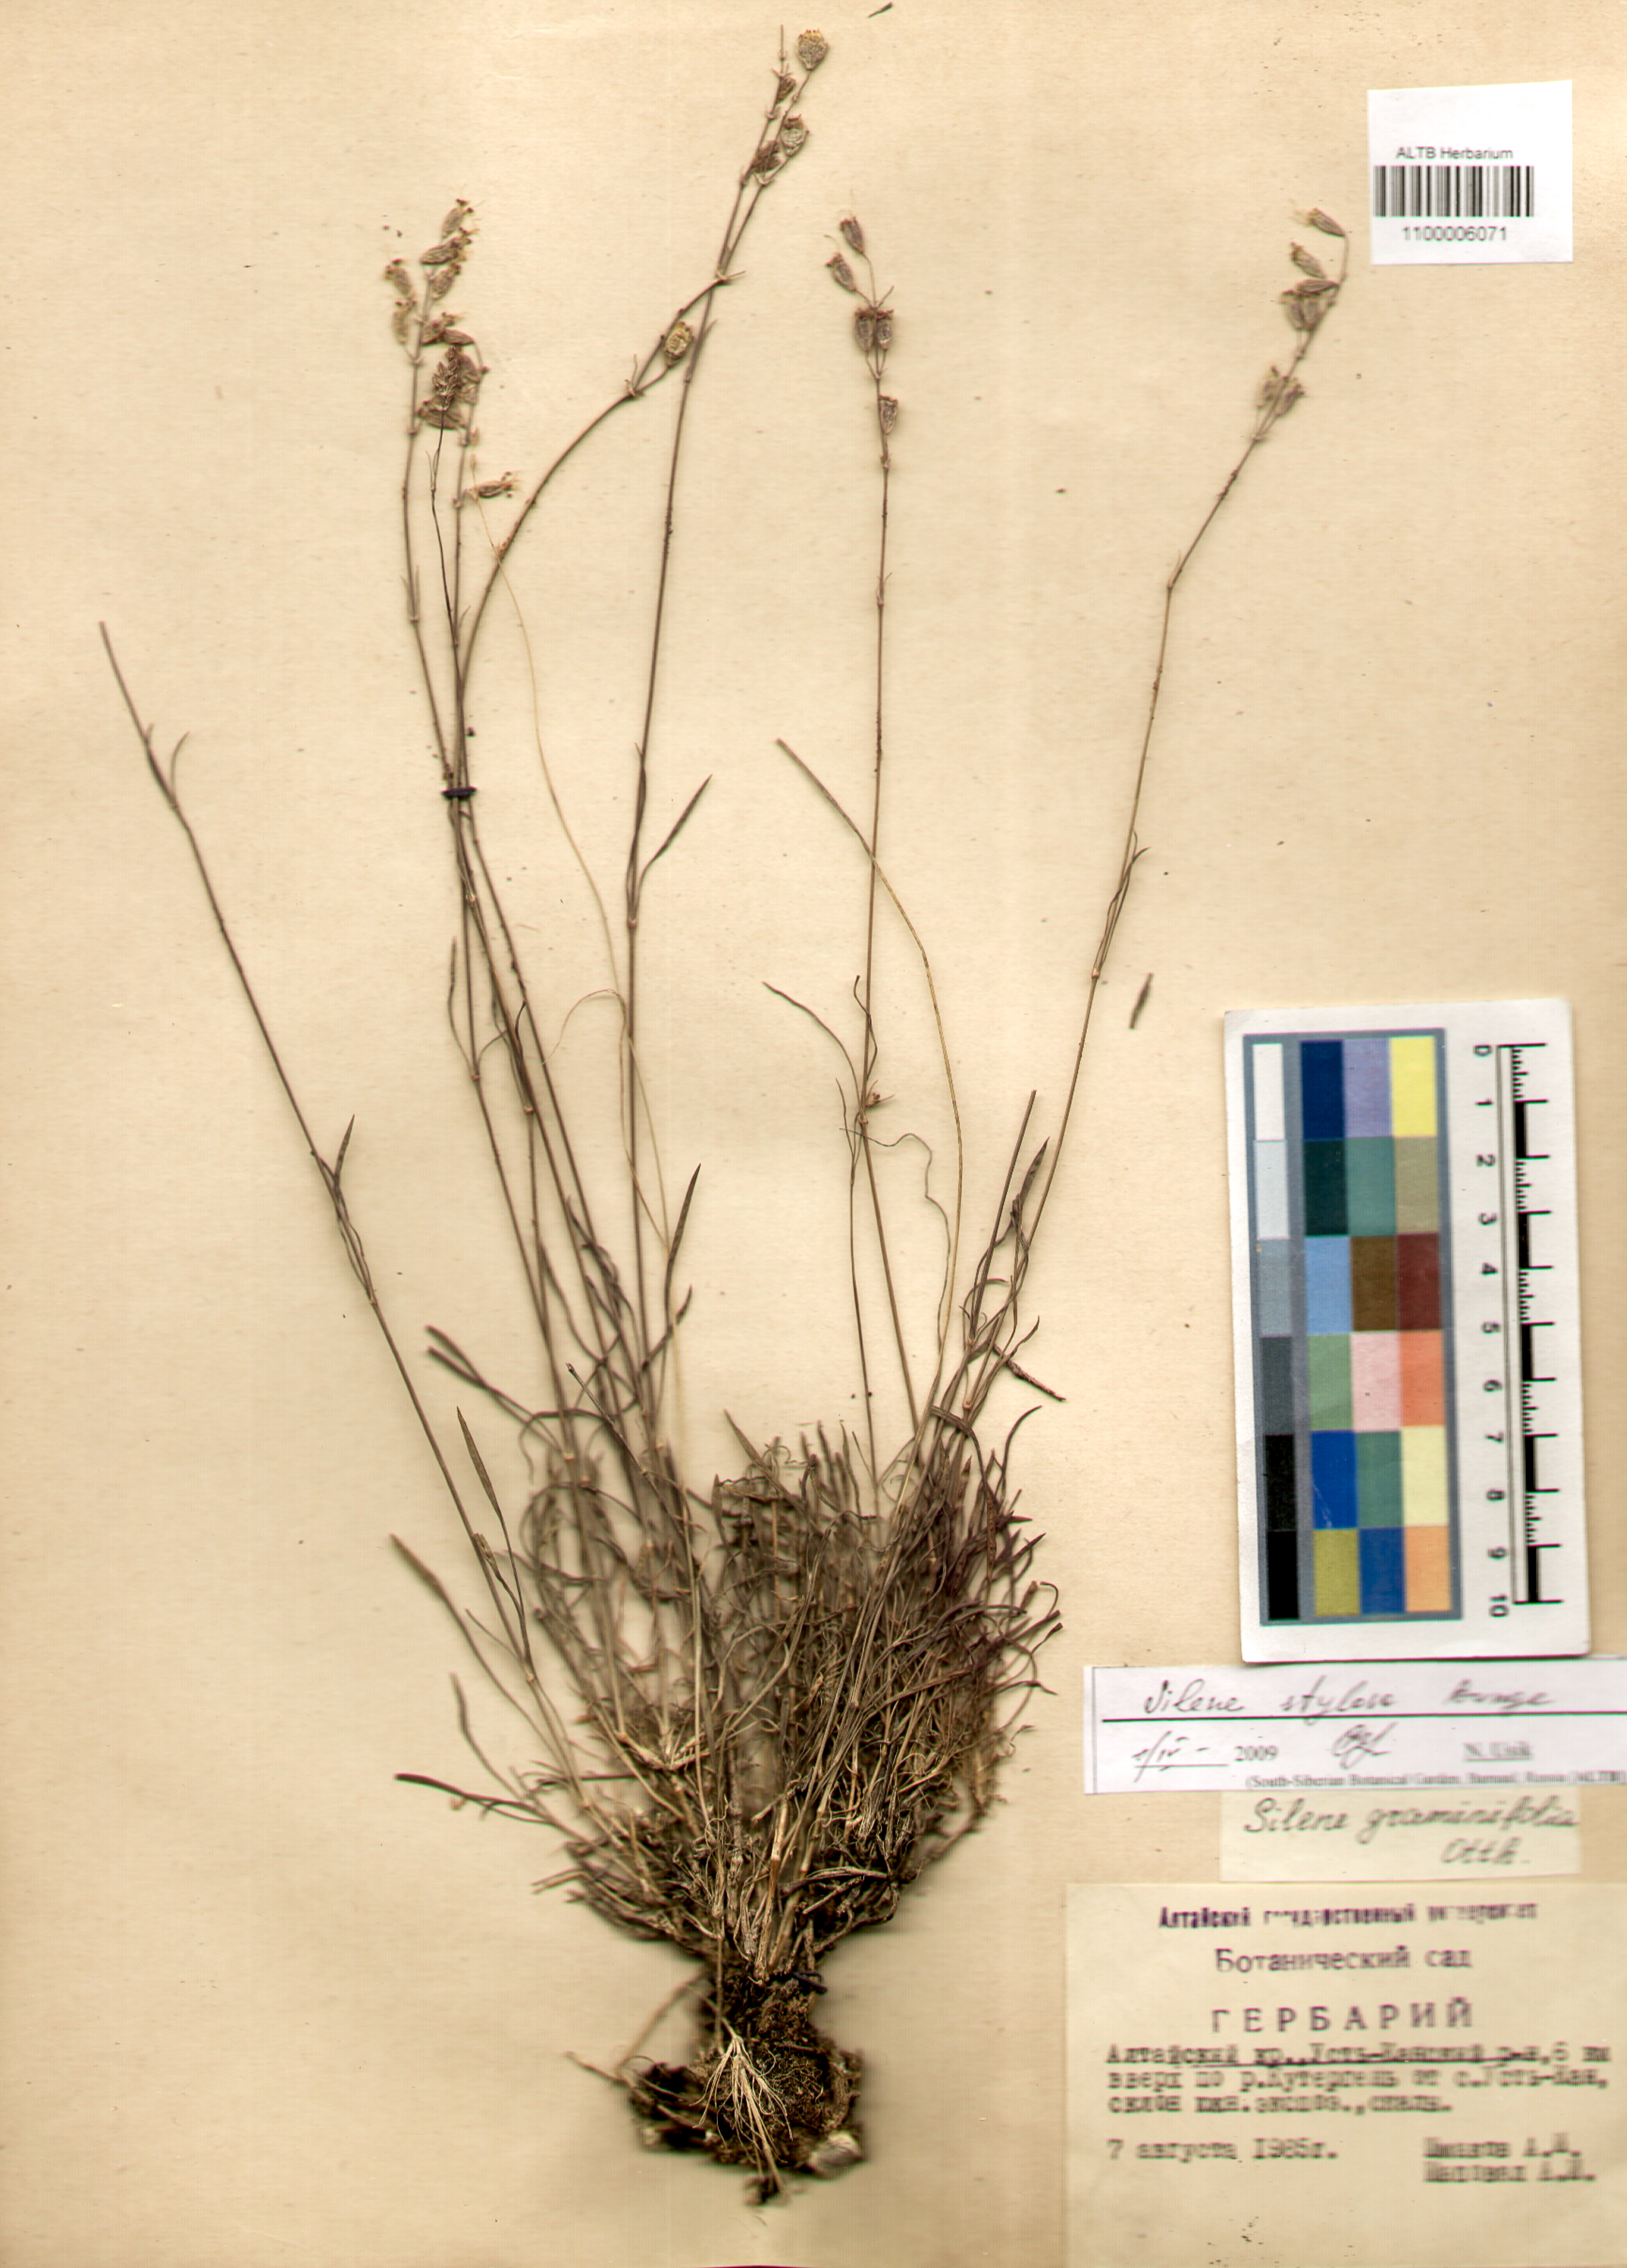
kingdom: Plantae
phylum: Tracheophyta
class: Magnoliopsida
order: Caryophyllales
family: Caryophyllaceae
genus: Silene
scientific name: Silene graminifolia
